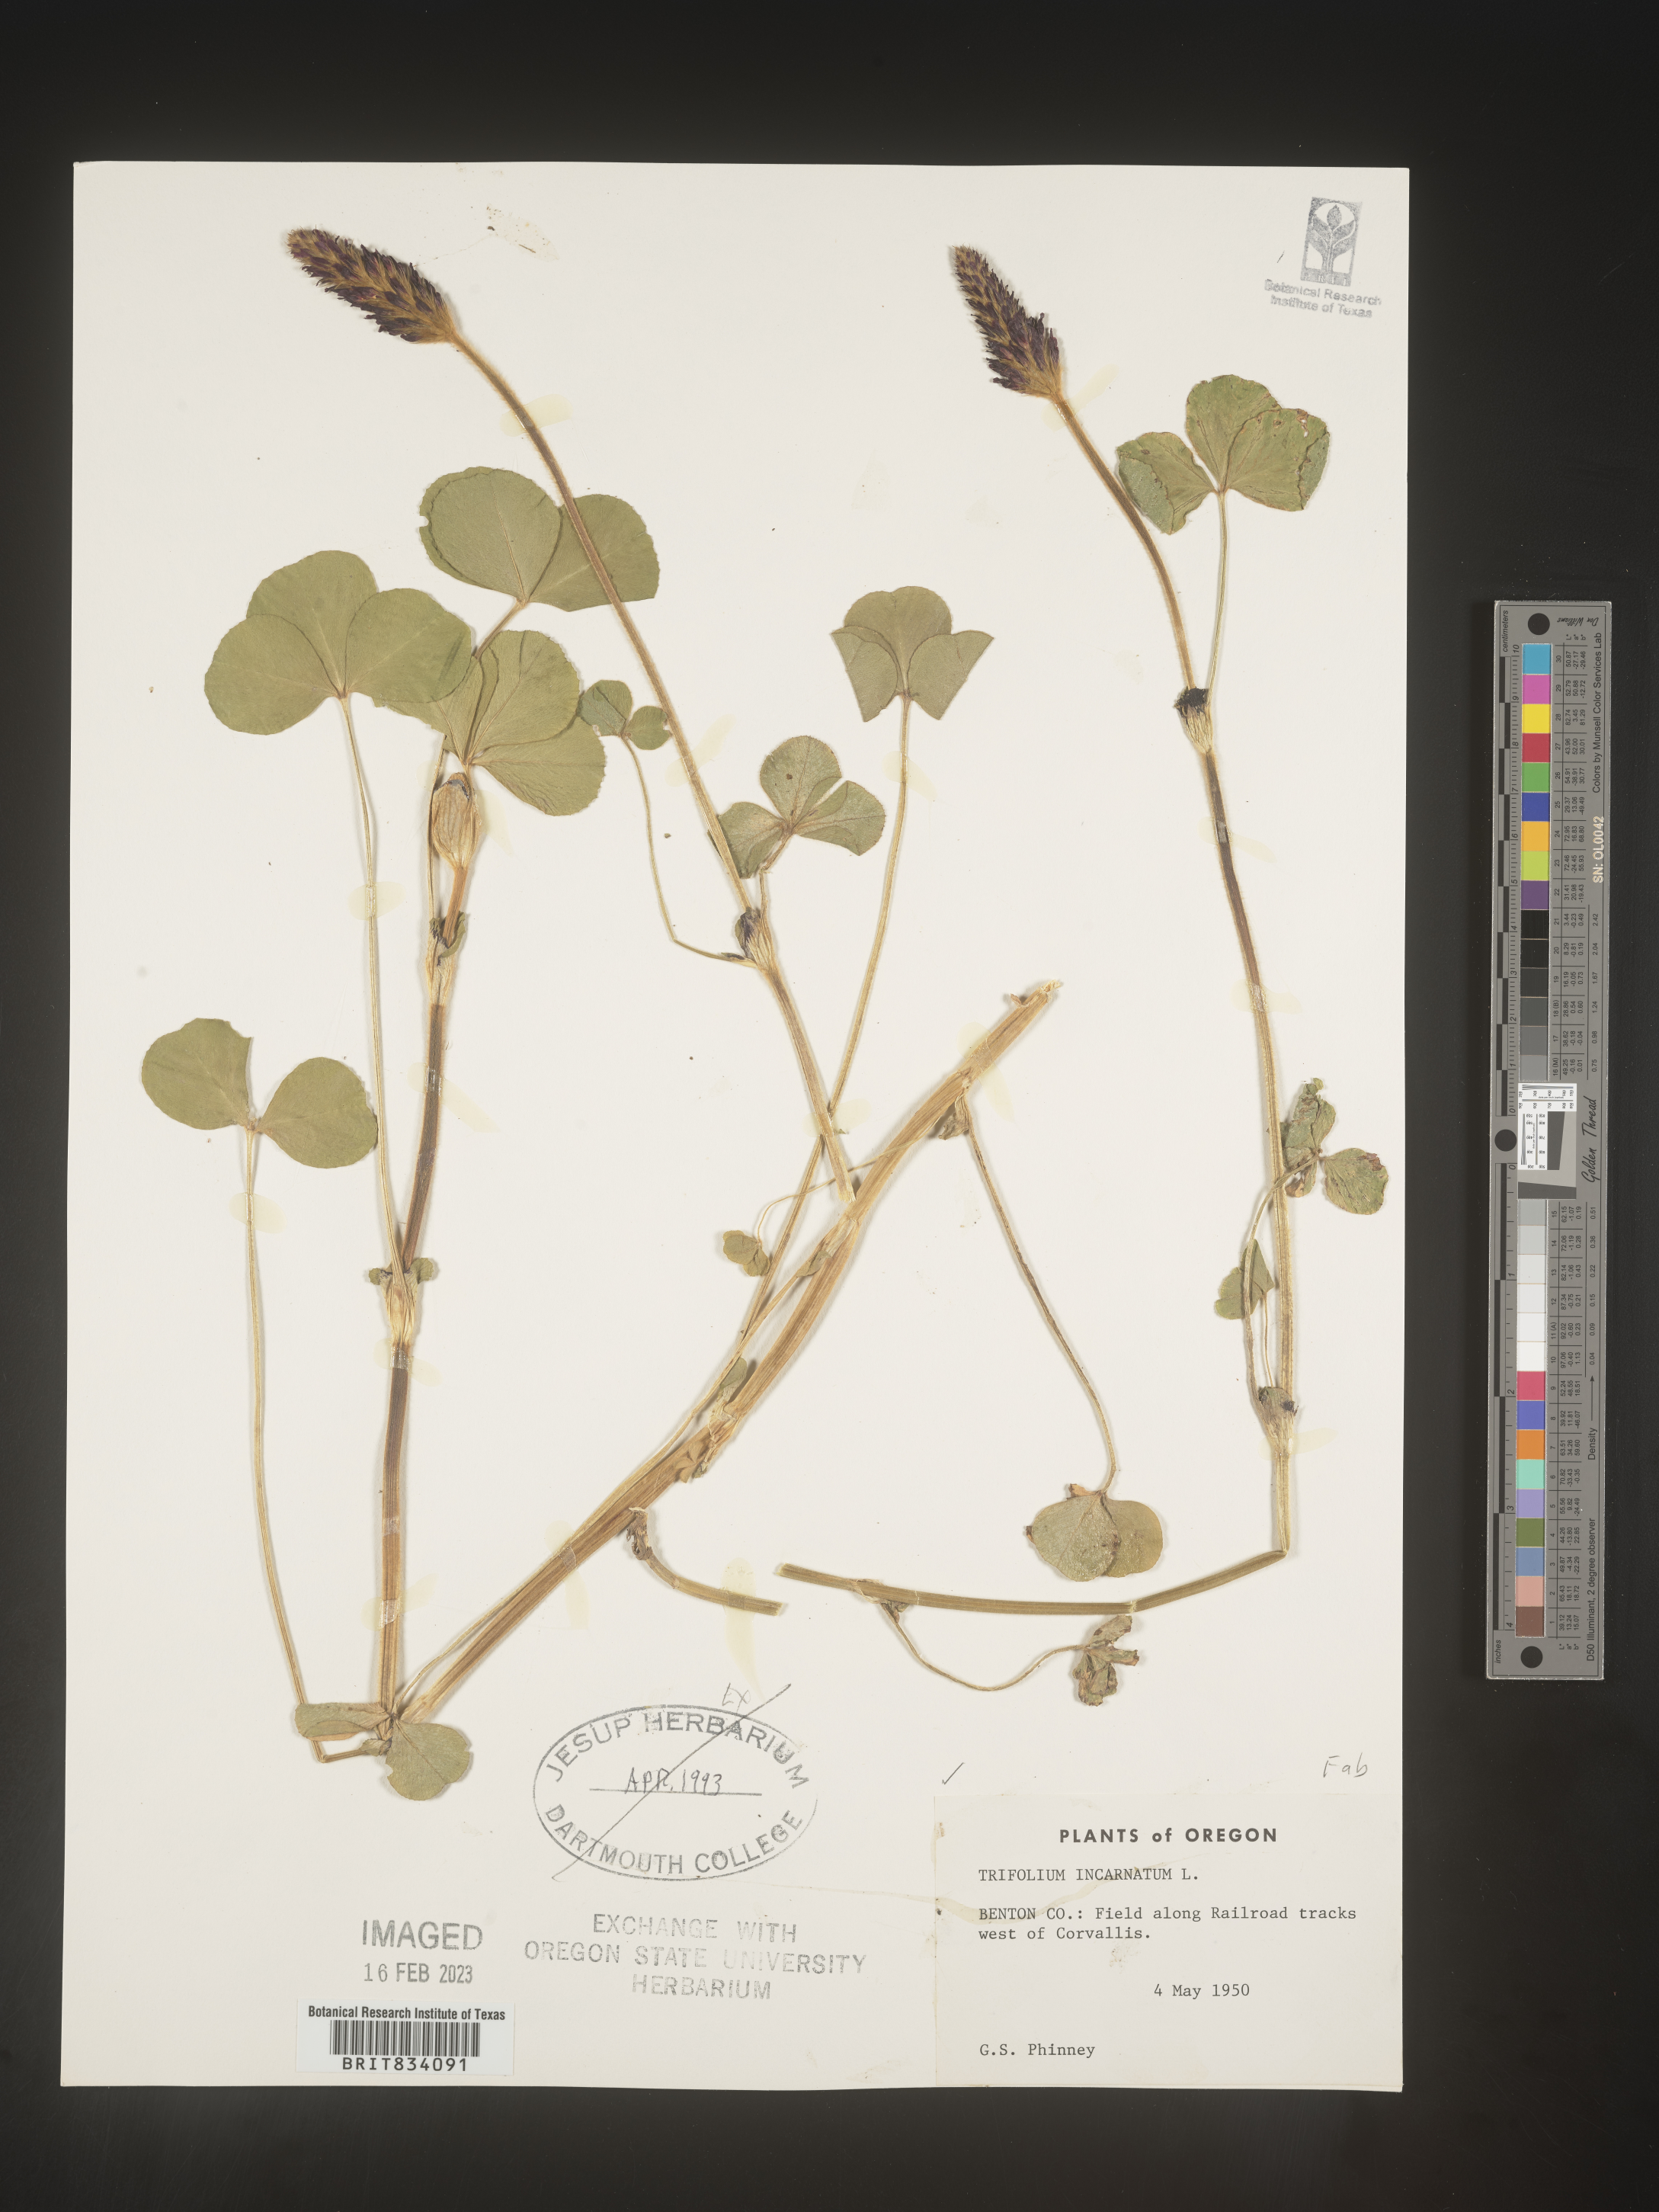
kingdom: Plantae
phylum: Tracheophyta
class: Magnoliopsida
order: Fabales
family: Fabaceae
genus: Trifolium
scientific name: Trifolium incarnatum
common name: Crimson clover
